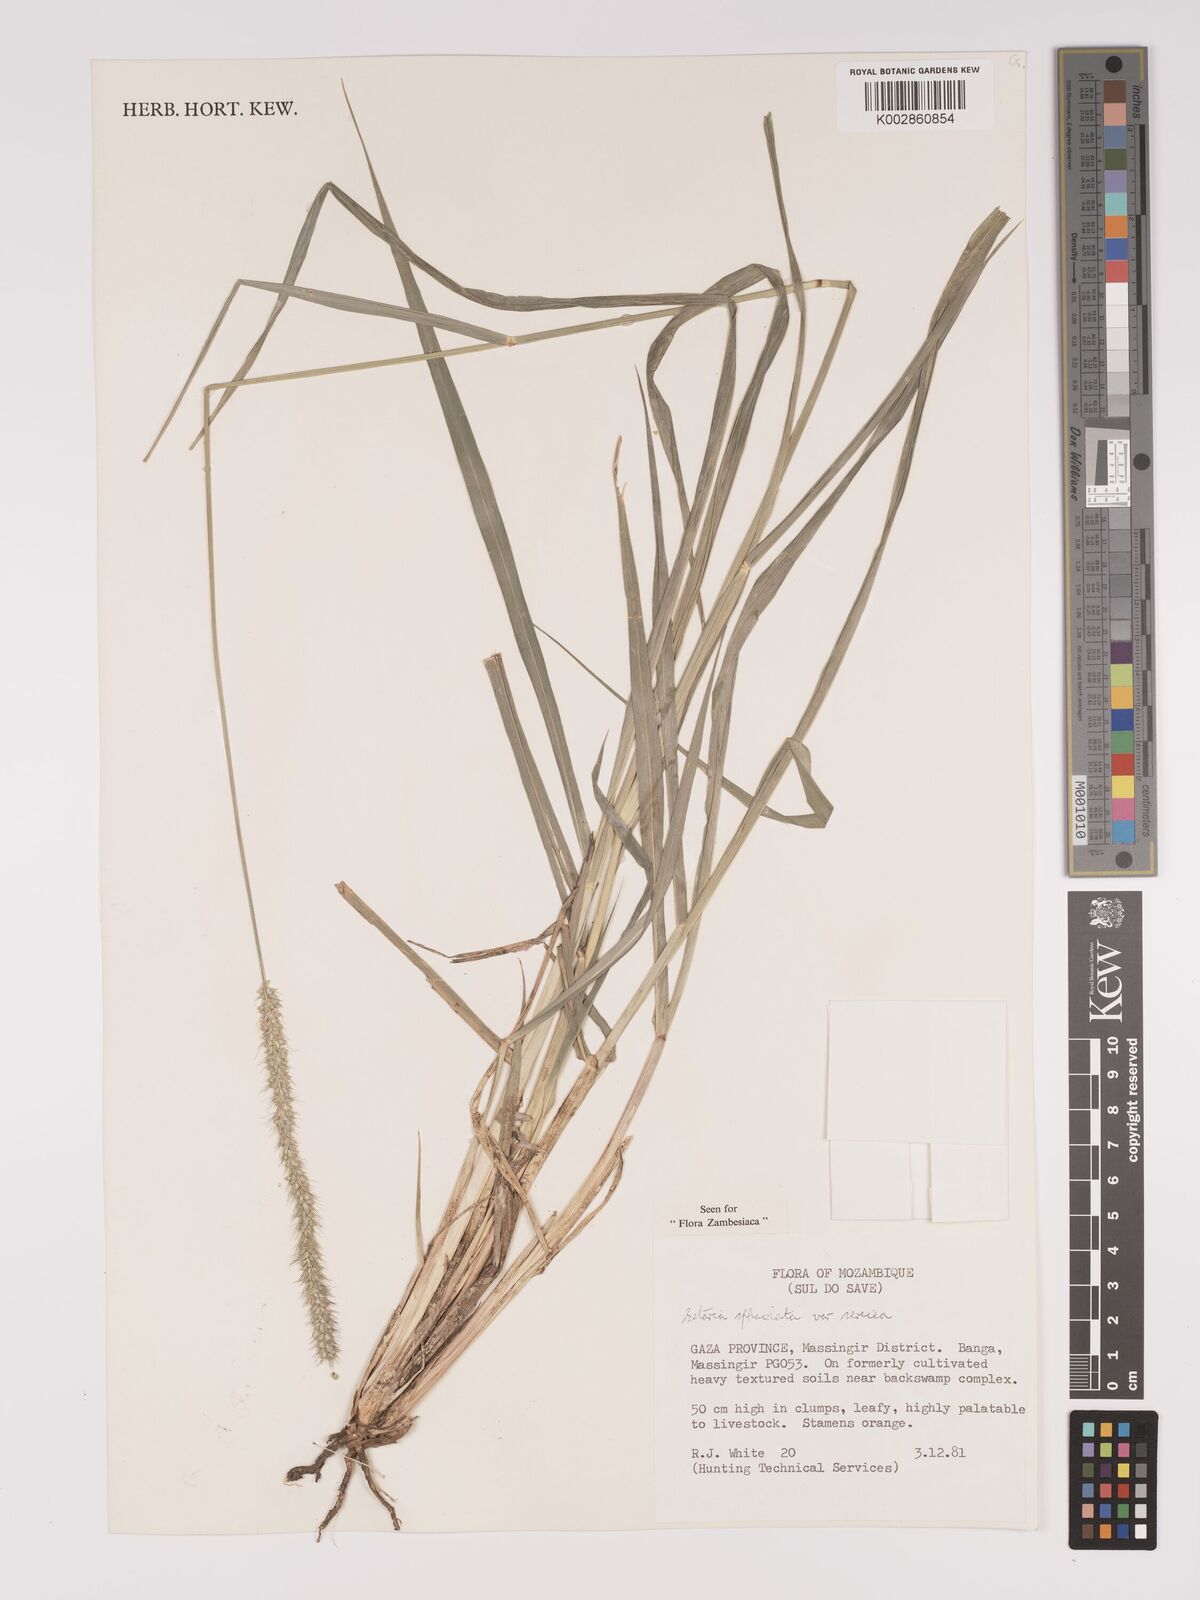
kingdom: Plantae
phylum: Tracheophyta
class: Liliopsida
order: Poales
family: Poaceae
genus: Setaria
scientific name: Setaria sphacelata
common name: African bristlegrass
